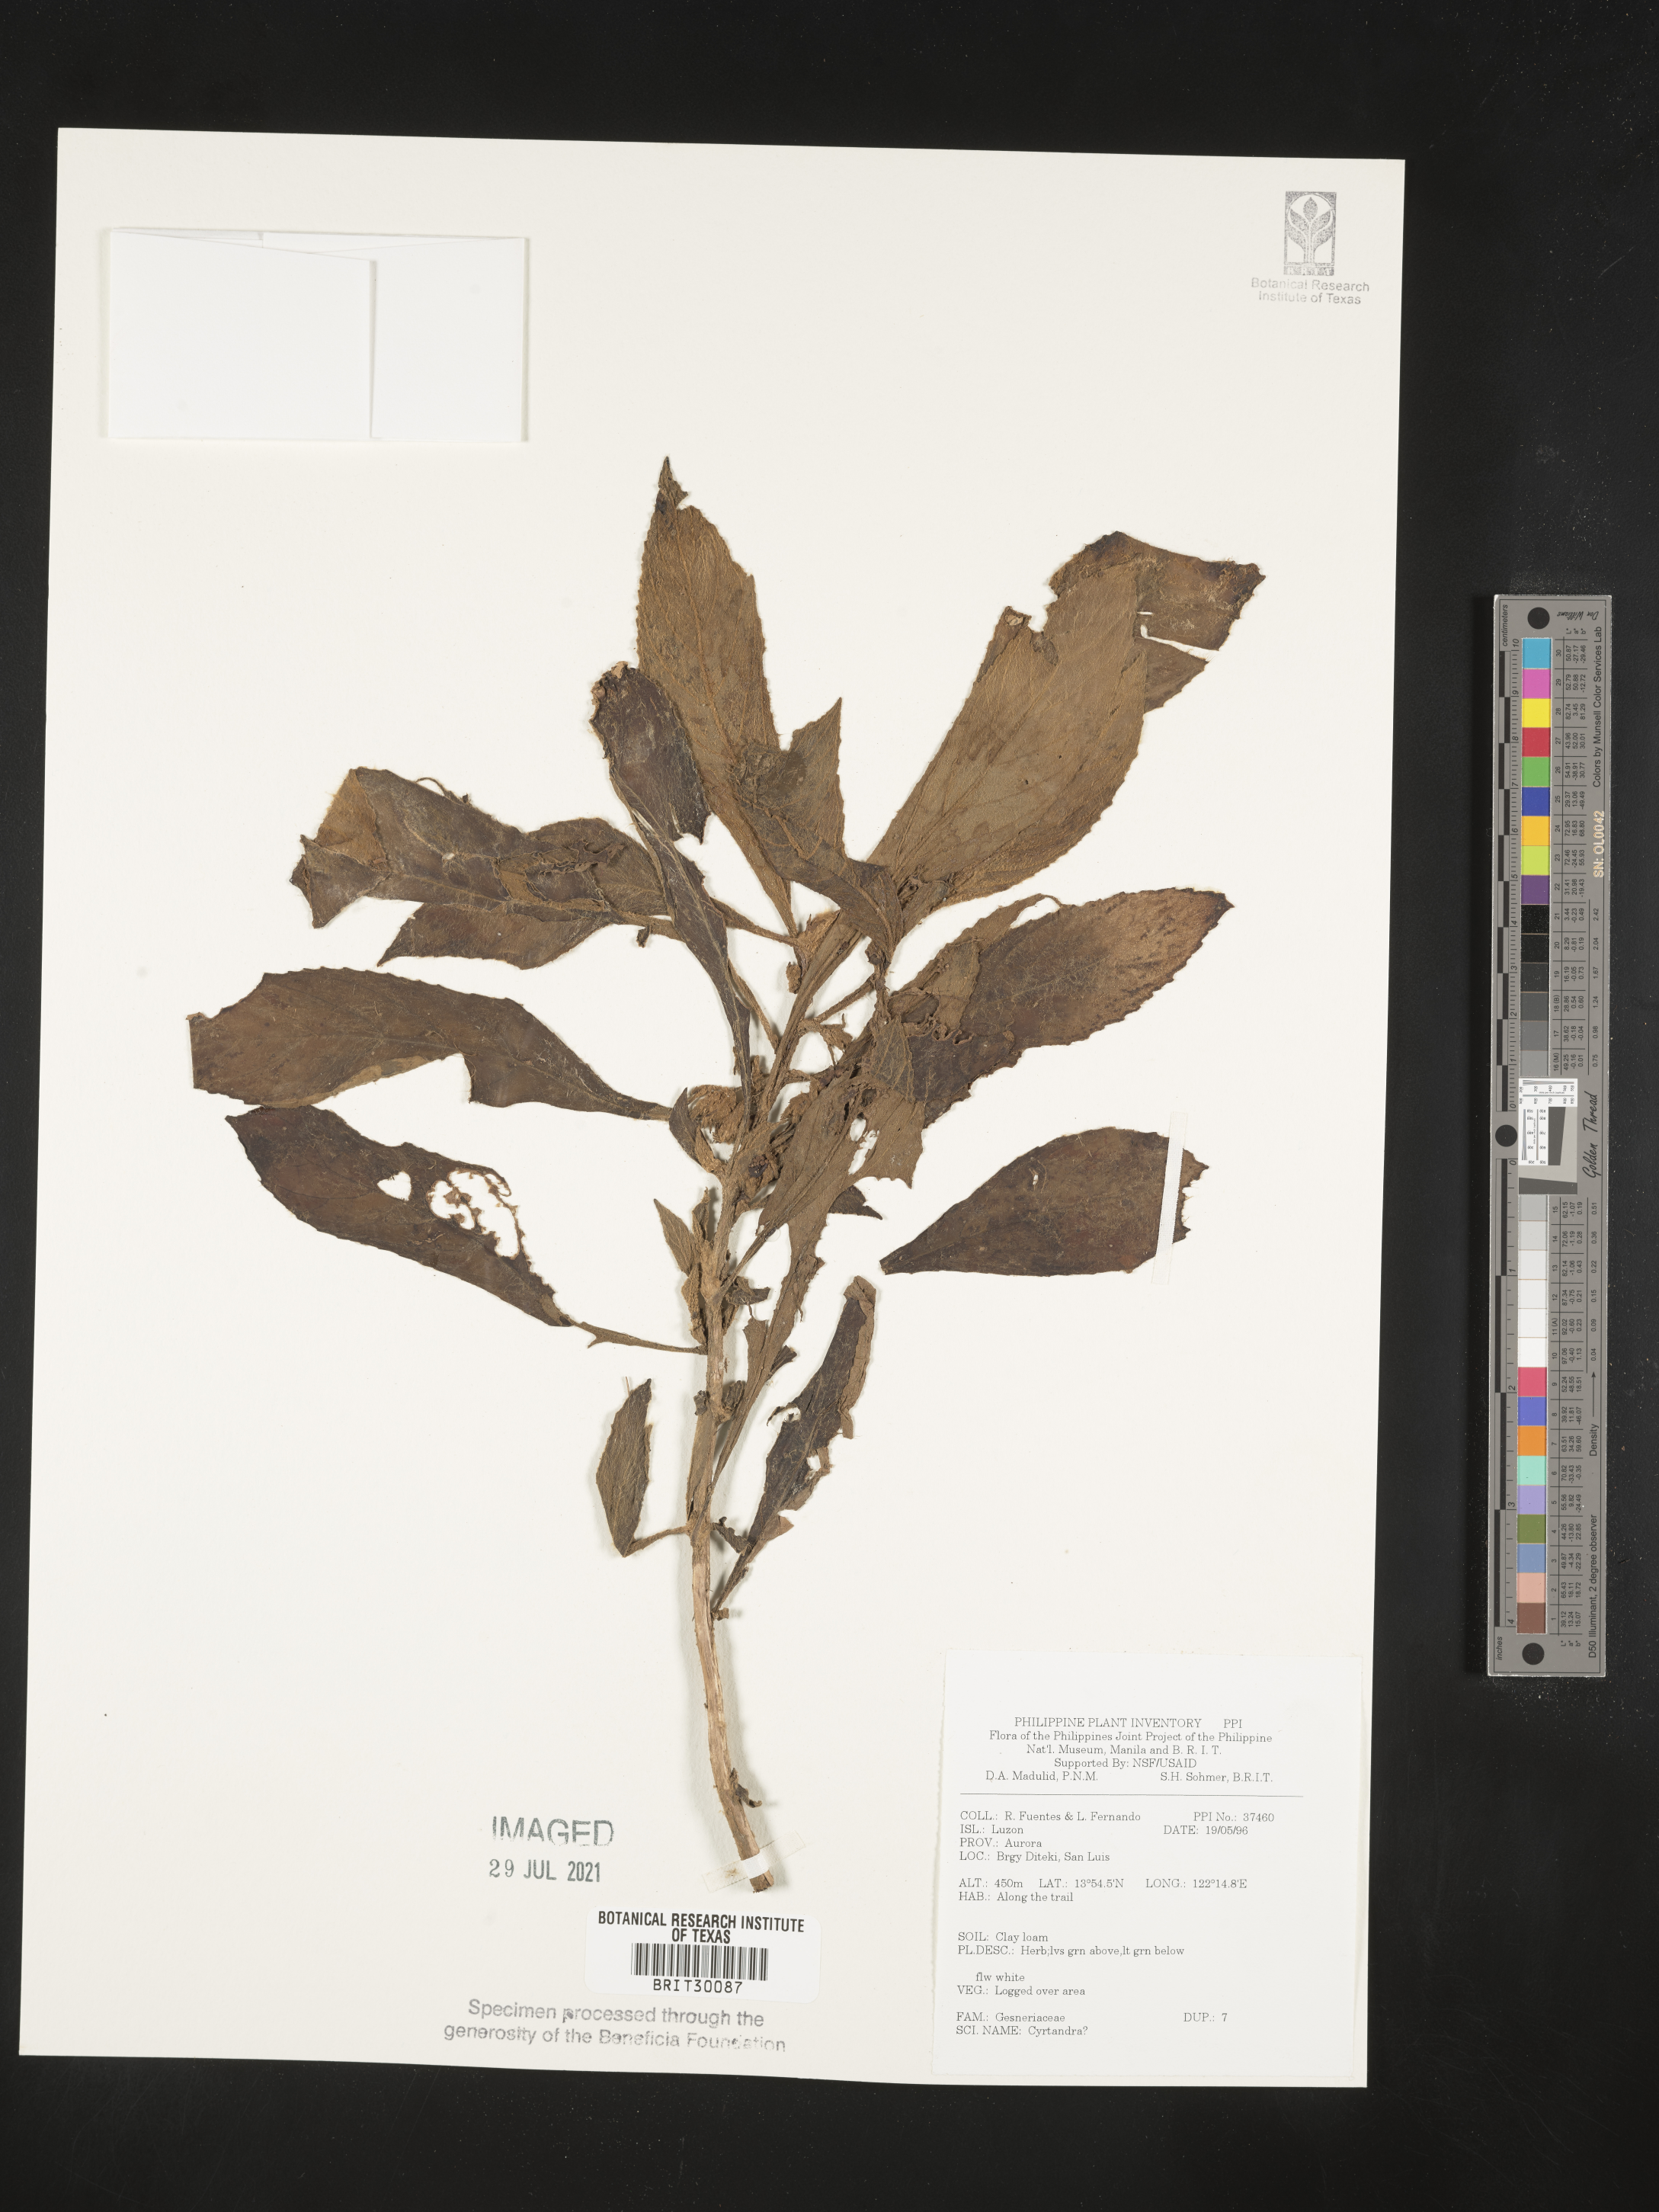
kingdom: Plantae
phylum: Tracheophyta
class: Magnoliopsida
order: Lamiales
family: Gesneriaceae
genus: Cyrtandra
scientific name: Cyrtandra
